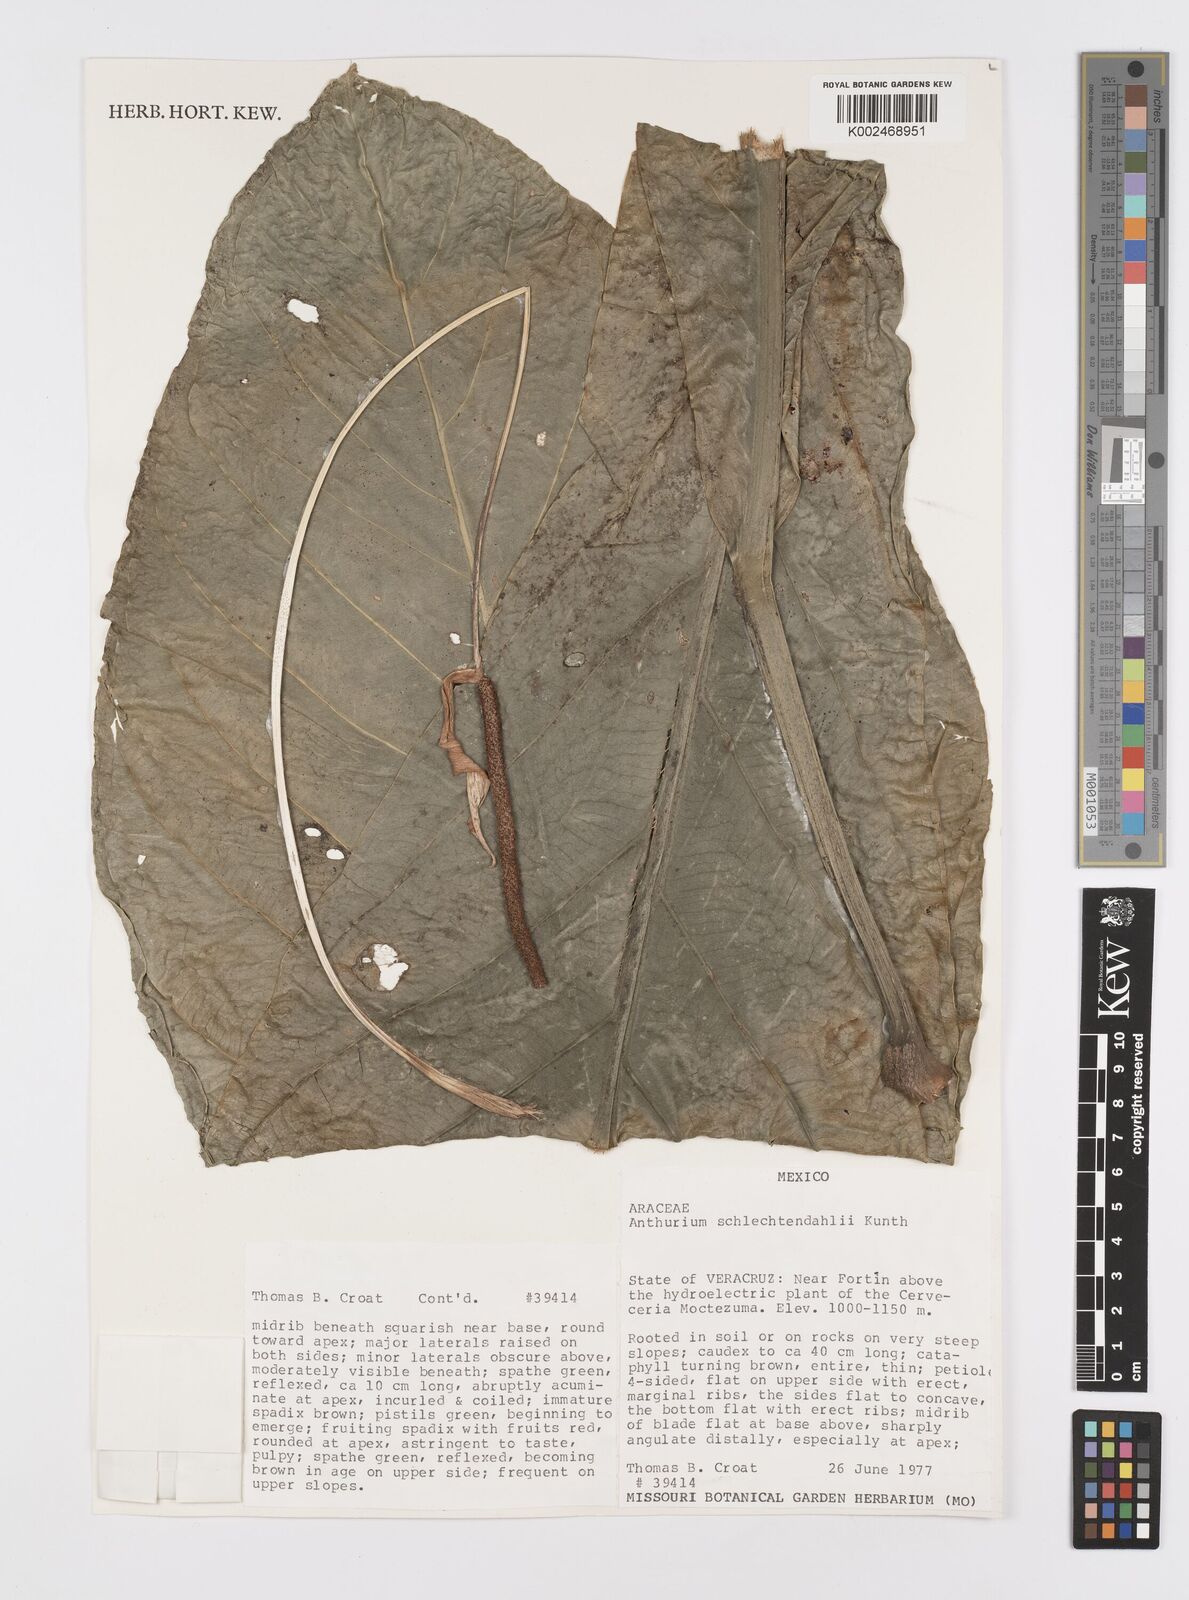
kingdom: Plantae
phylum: Tracheophyta
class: Liliopsida
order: Alismatales
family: Araceae
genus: Anthurium
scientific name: Anthurium schlechtendalii
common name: Laceleaf
